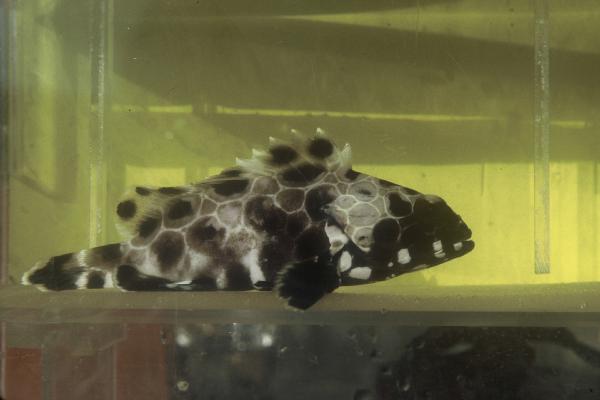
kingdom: Animalia
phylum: Chordata
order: Perciformes
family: Serranidae
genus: Epinephelus
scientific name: Epinephelus macrospilos
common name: Snubnose grouper
